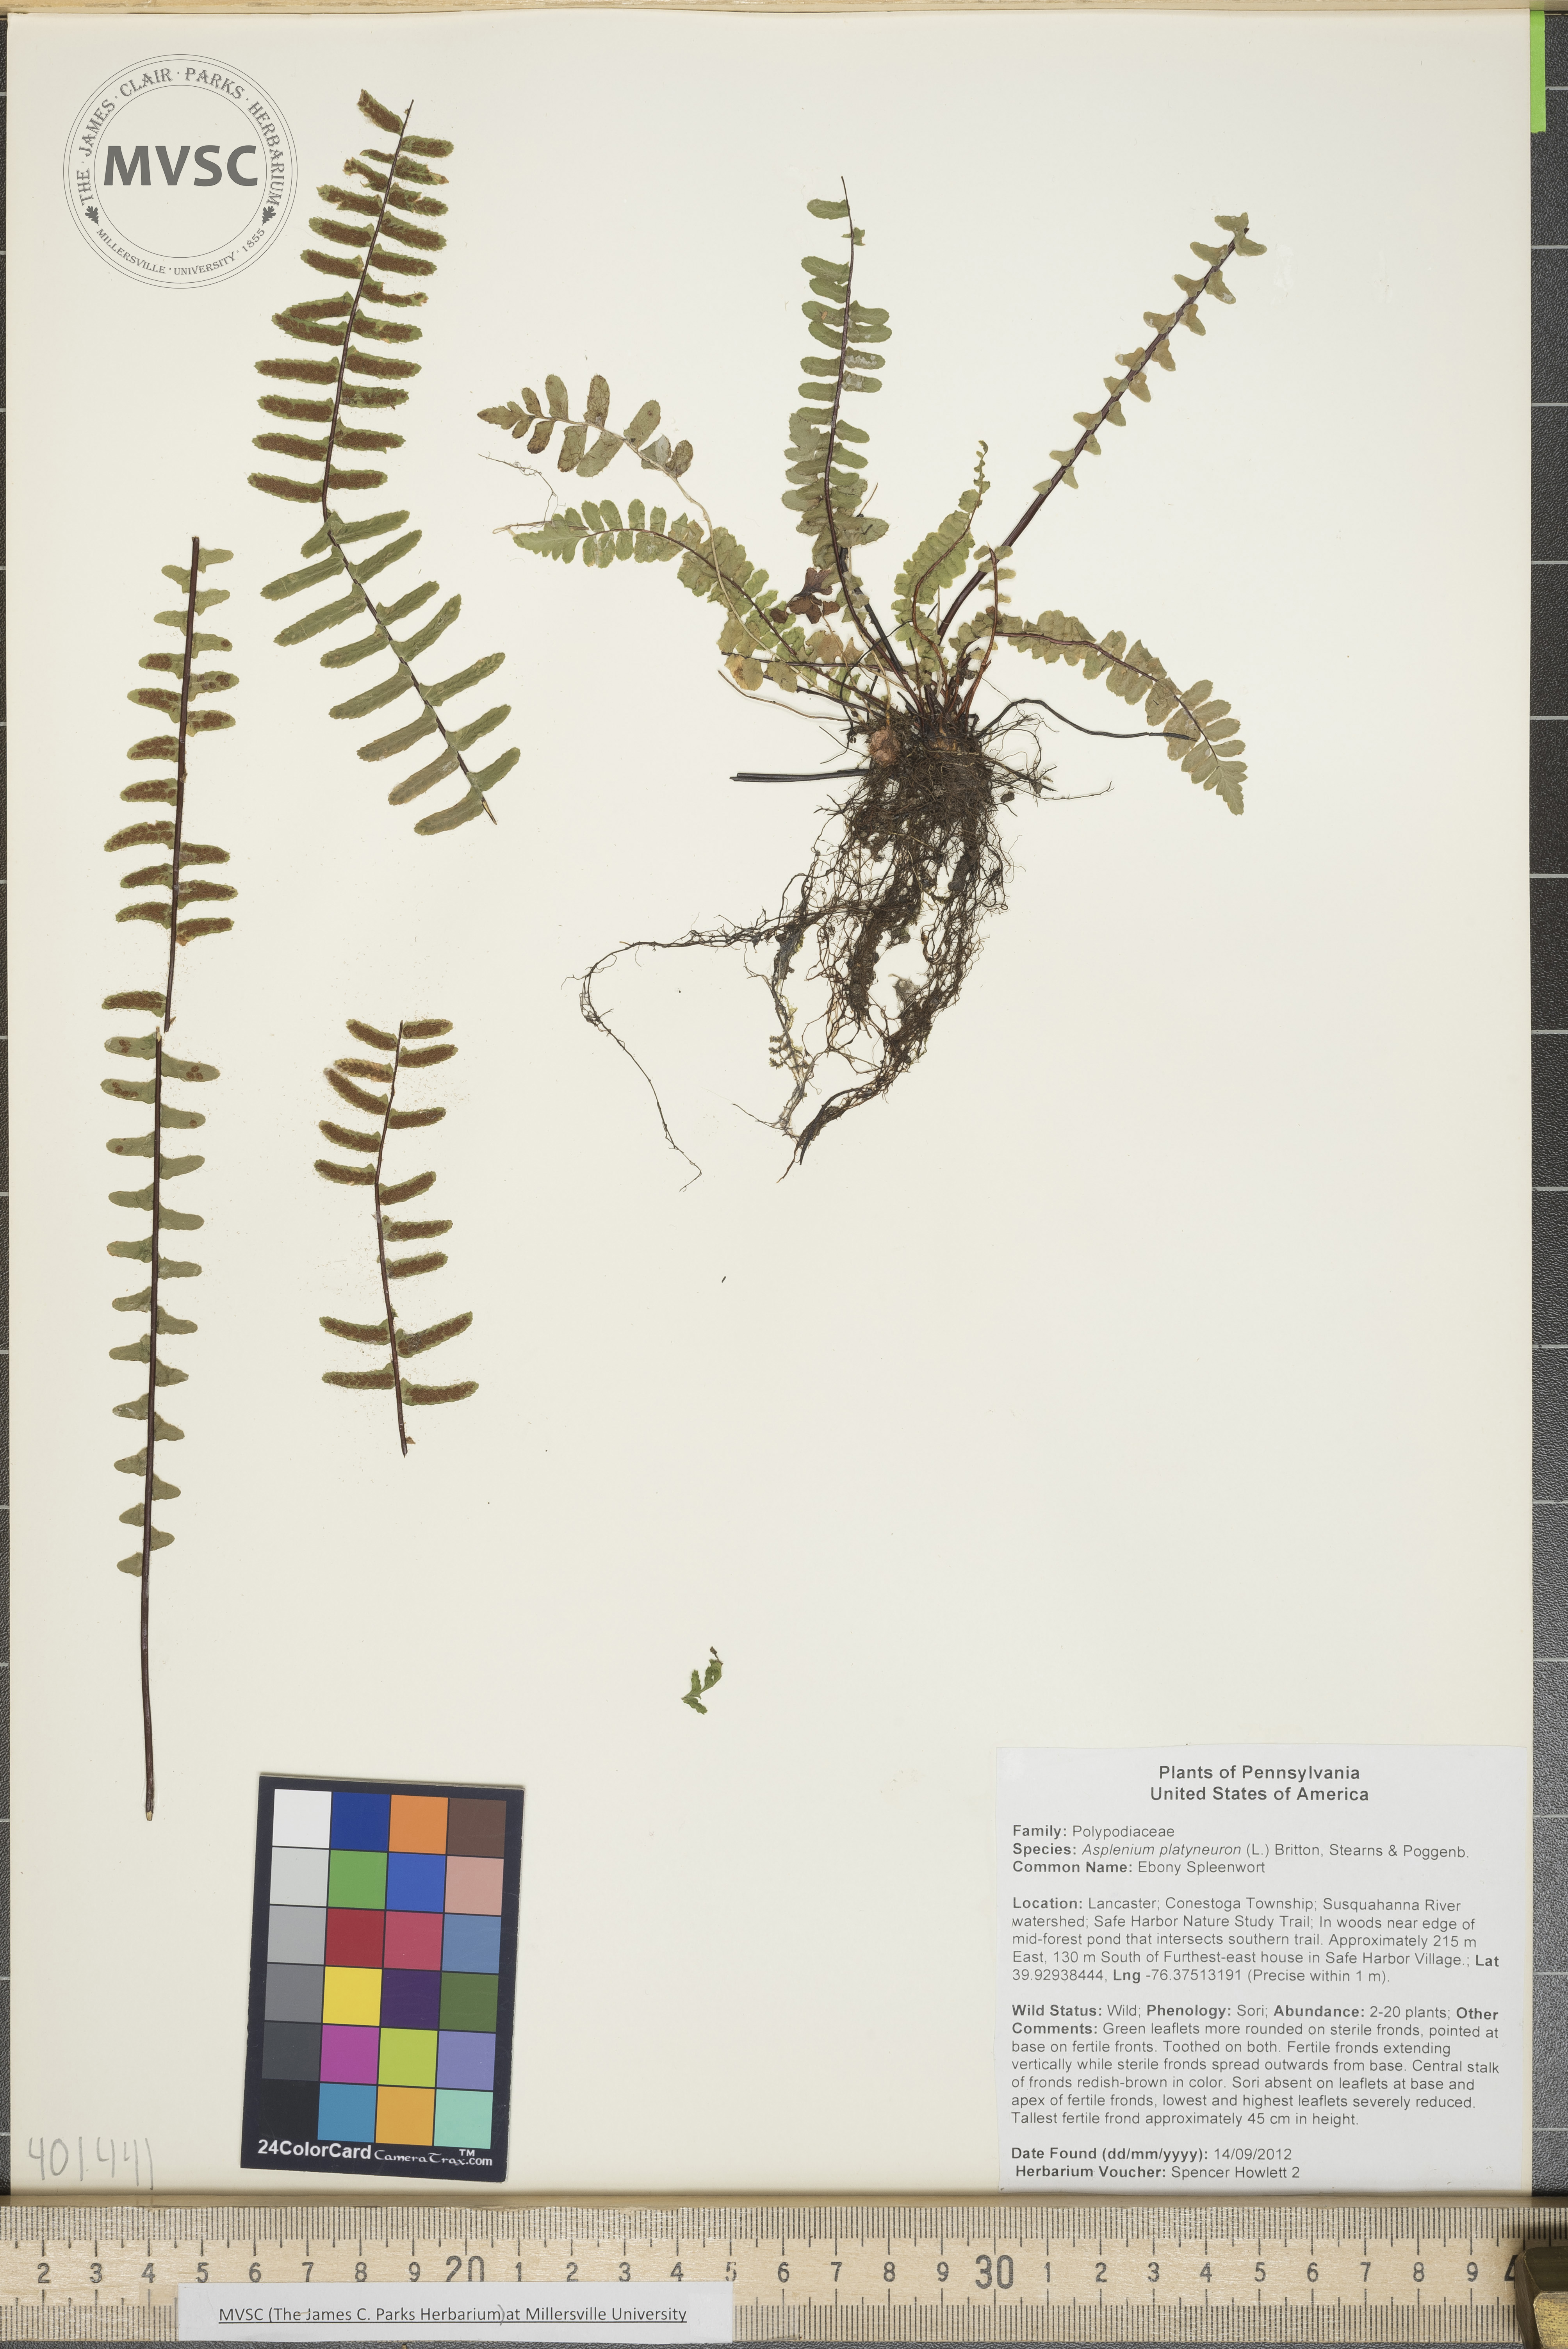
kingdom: Plantae
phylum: Tracheophyta
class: Polypodiopsida
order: Polypodiales
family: Aspleniaceae
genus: Asplenium
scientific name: Asplenium platyneuron
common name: Ebony Spleenwort
